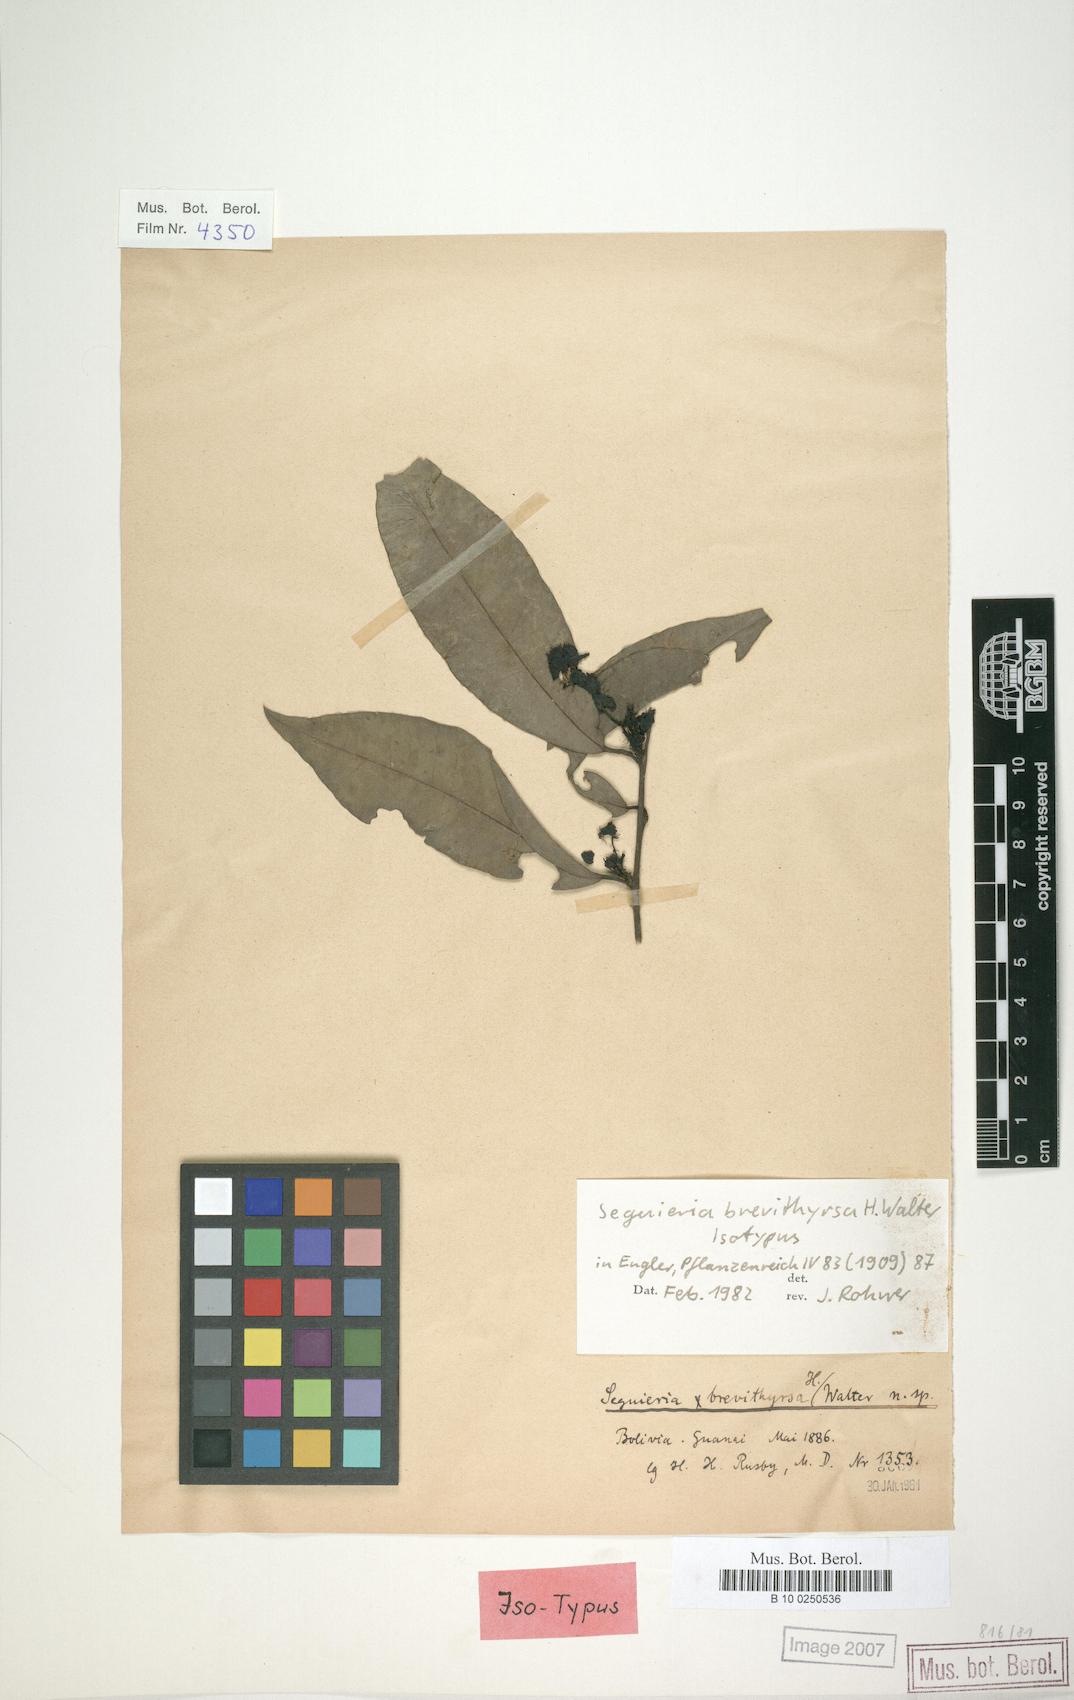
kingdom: Plantae
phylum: Tracheophyta
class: Magnoliopsida
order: Caryophyllales
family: Phytolaccaceae
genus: Seguieria
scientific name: Seguieria brevithyrsa
